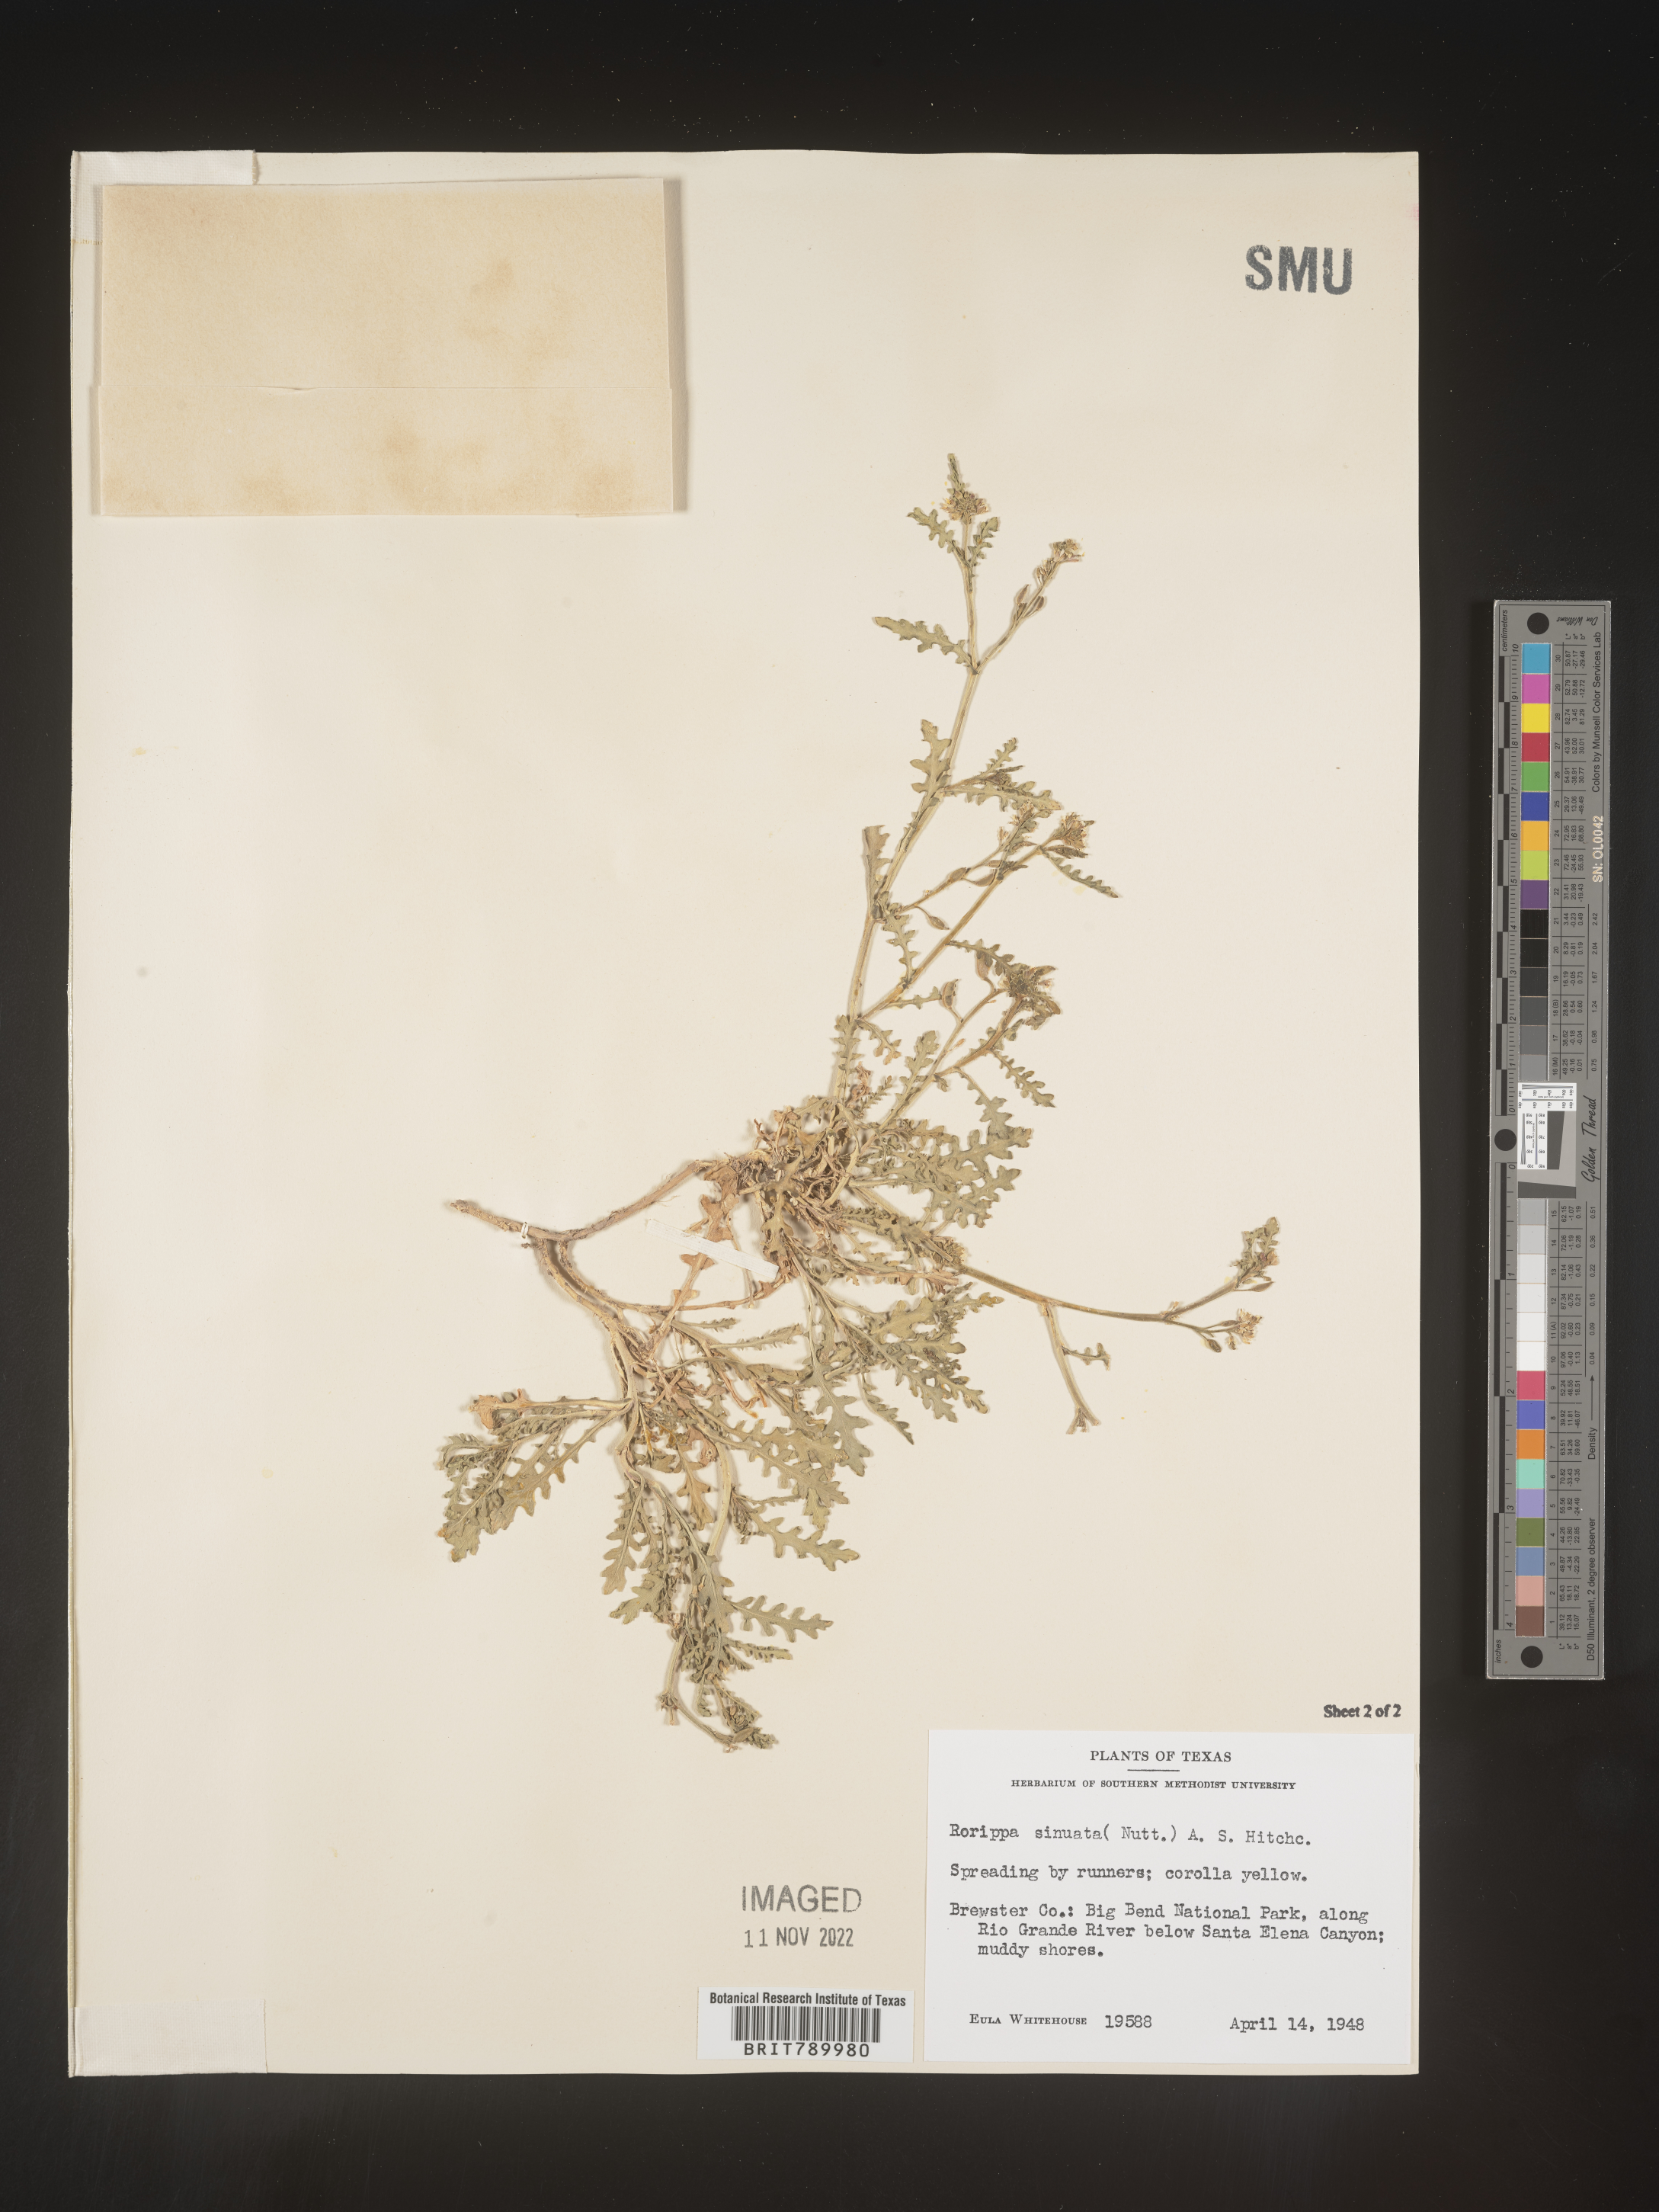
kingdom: Plantae
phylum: Tracheophyta
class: Magnoliopsida
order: Brassicales
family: Brassicaceae
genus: Rorippa
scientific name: Rorippa sinuata
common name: Spread yellow cress
